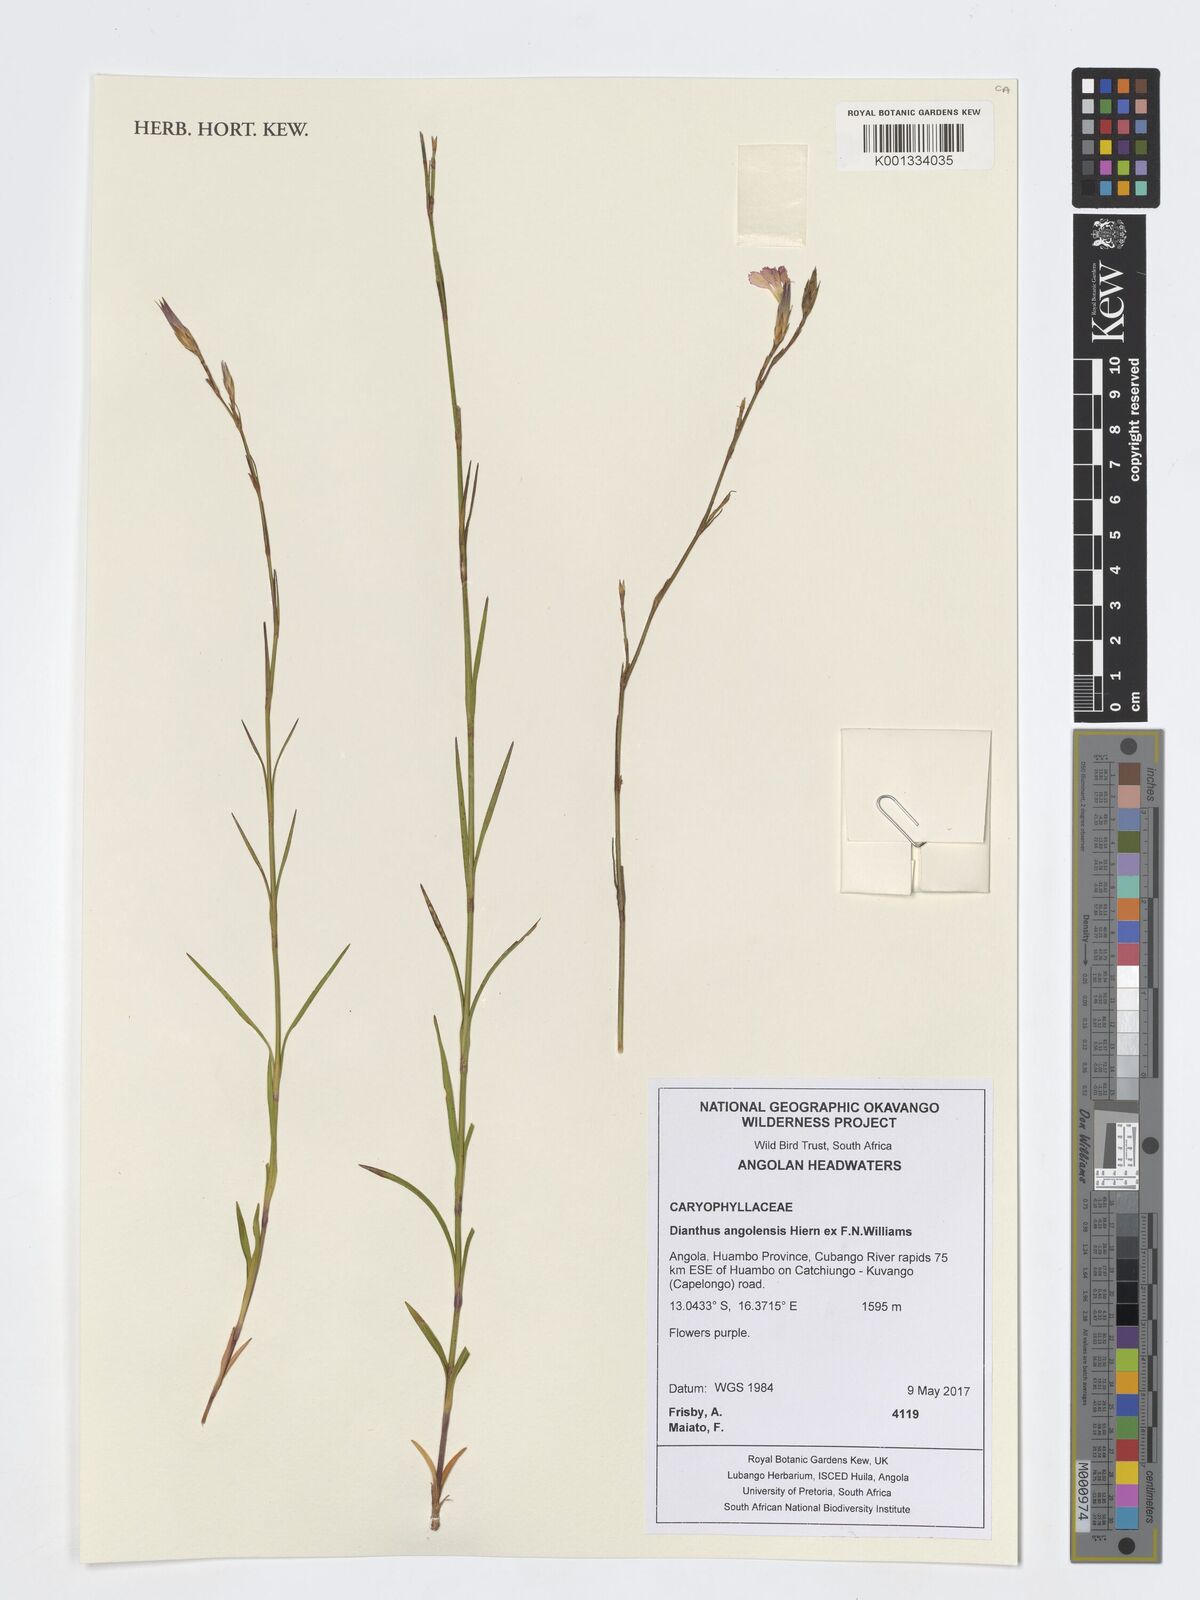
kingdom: Plantae
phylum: Tracheophyta
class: Magnoliopsida
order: Caryophyllales
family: Caryophyllaceae
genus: Dianthus
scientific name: Dianthus angolensis
